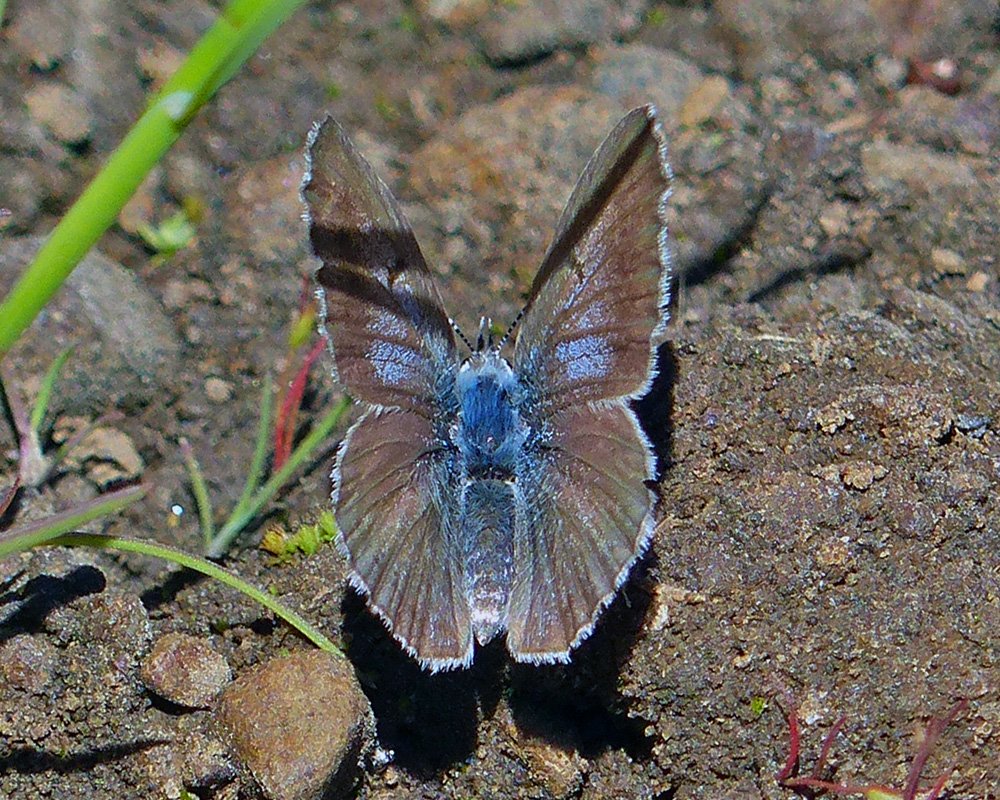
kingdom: Animalia
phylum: Arthropoda
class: Insecta
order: Lepidoptera
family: Lycaenidae
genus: Plebejus
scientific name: Plebejus saepiolus
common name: Greenish Blue
